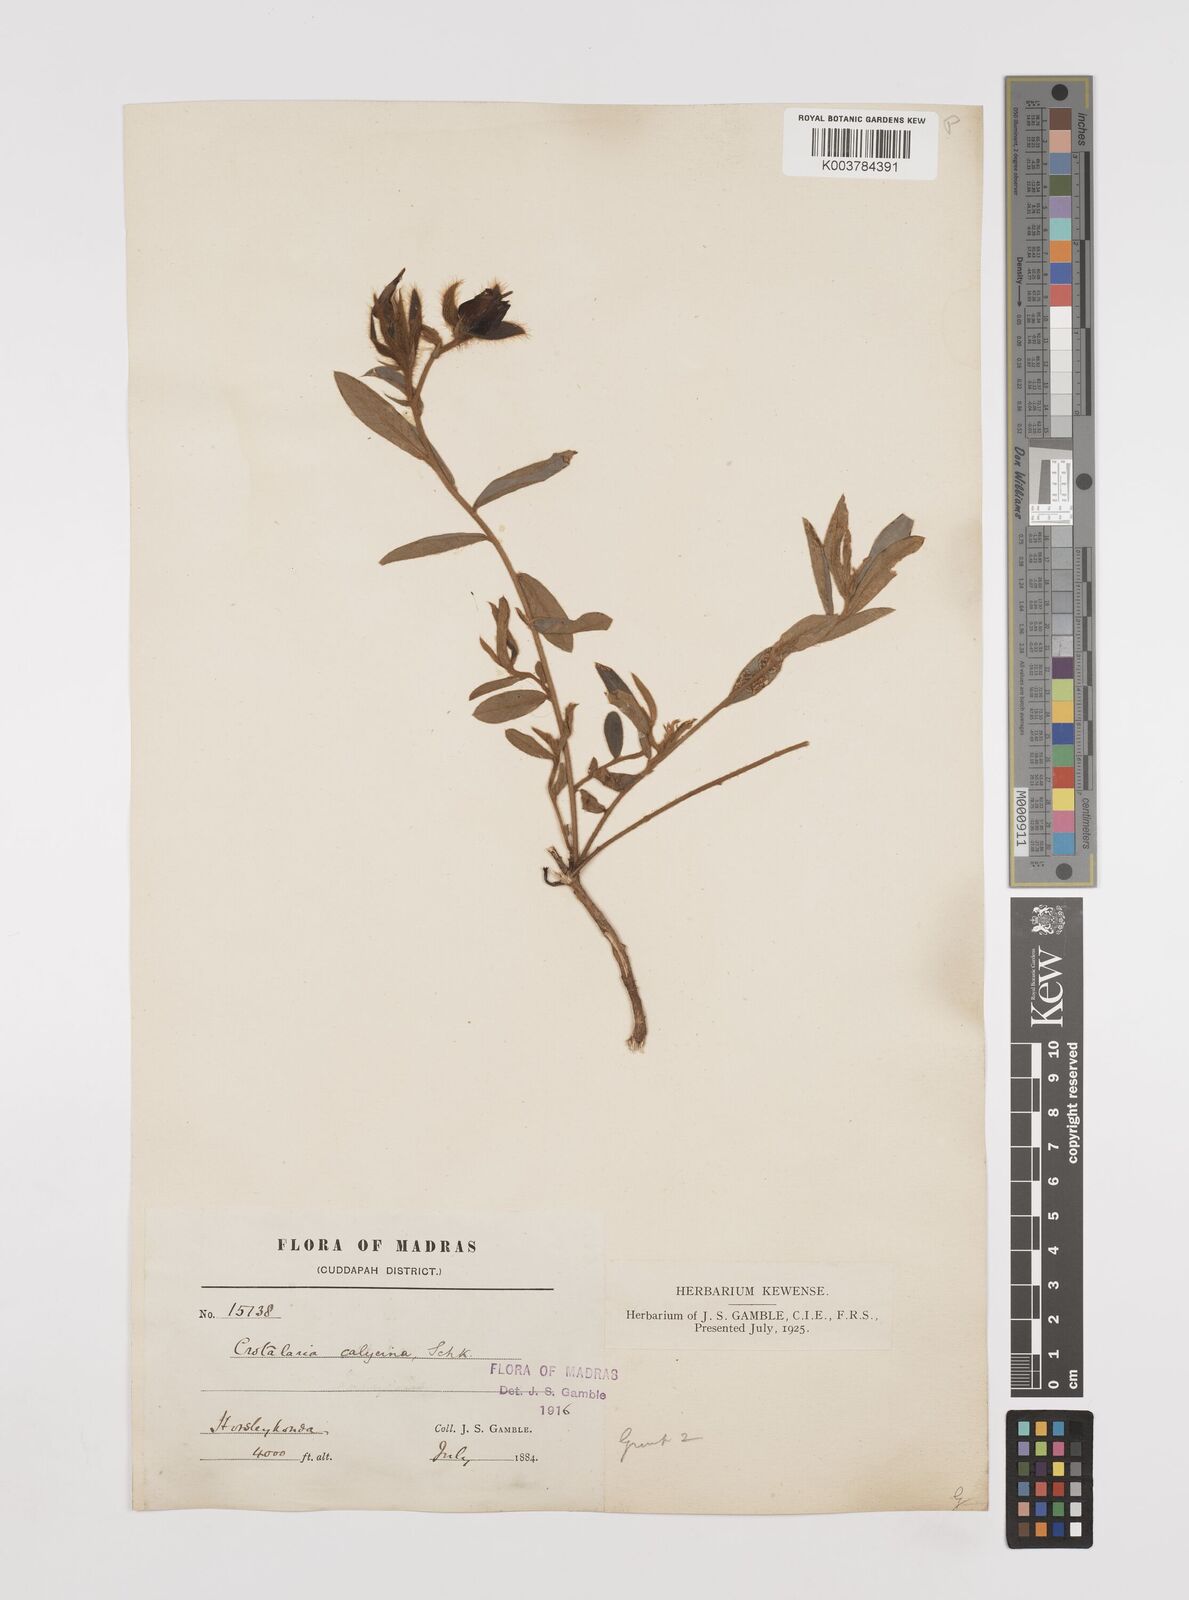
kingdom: Plantae
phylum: Tracheophyta
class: Magnoliopsida
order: Fabales
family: Fabaceae
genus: Crotalaria
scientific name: Crotalaria calycina
